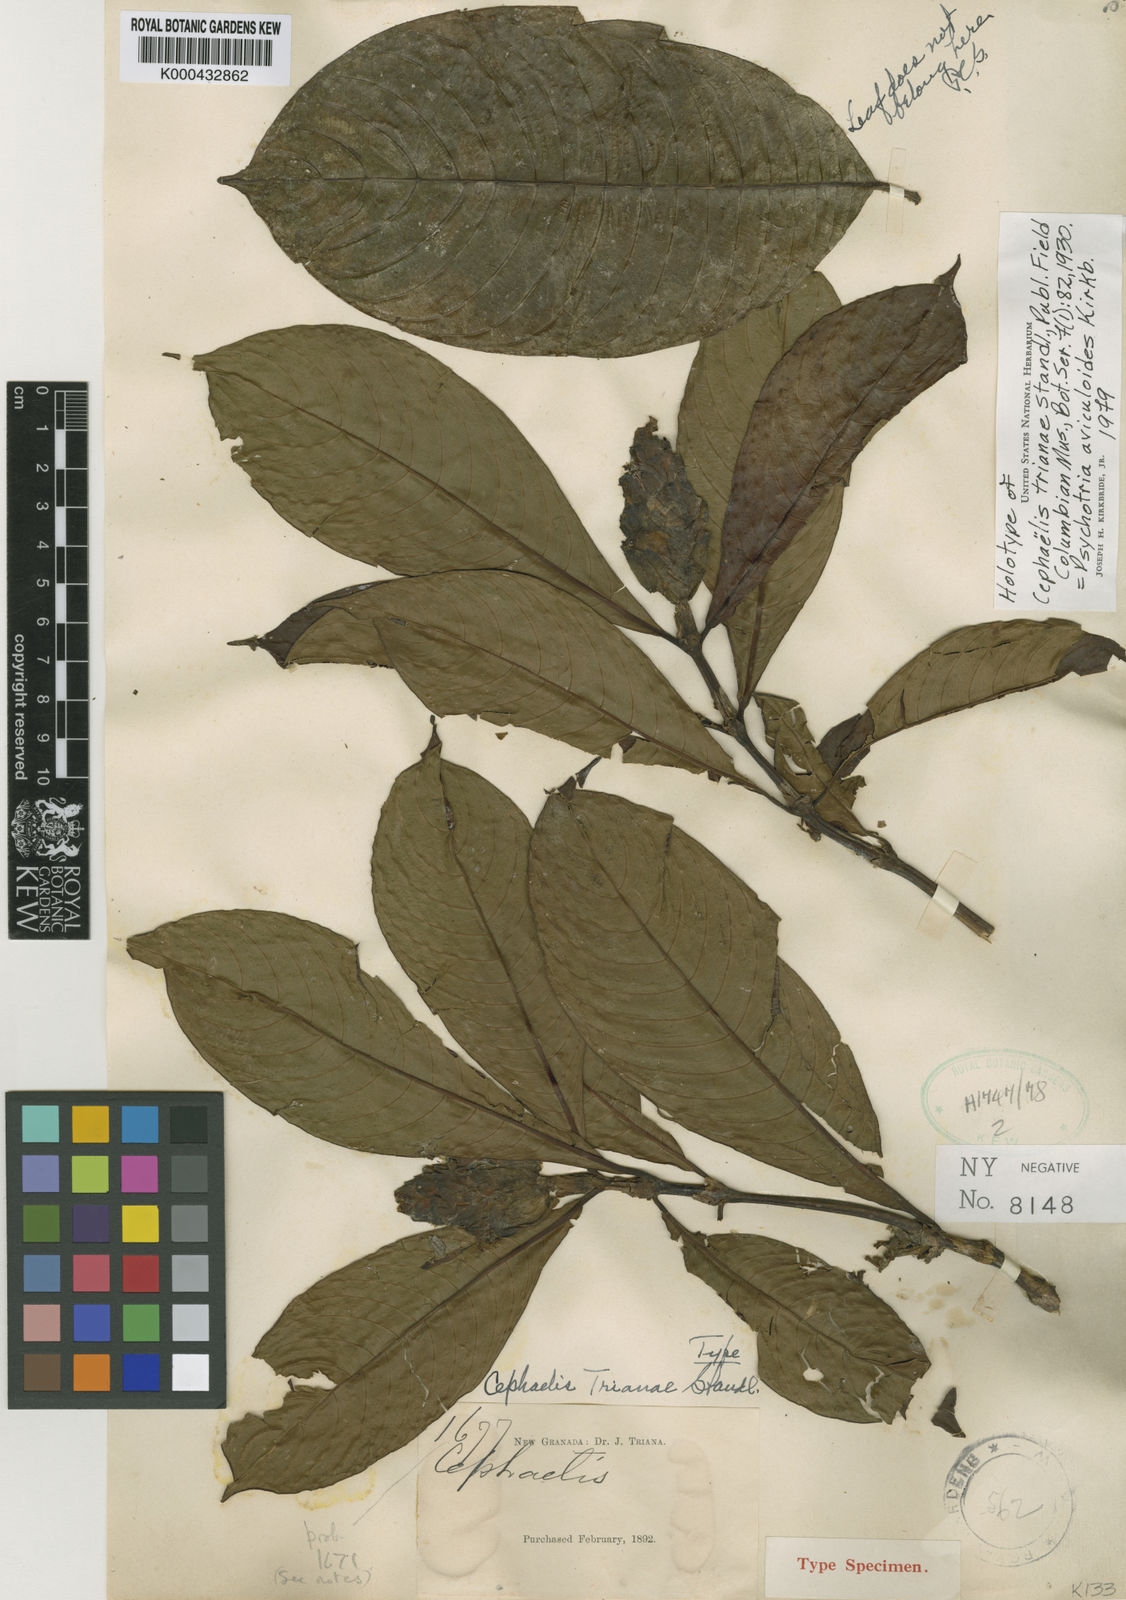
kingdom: Plantae
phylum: Tracheophyta
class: Magnoliopsida
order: Gentianales
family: Rubiaceae
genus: Palicourea
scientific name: Palicourea trianae
